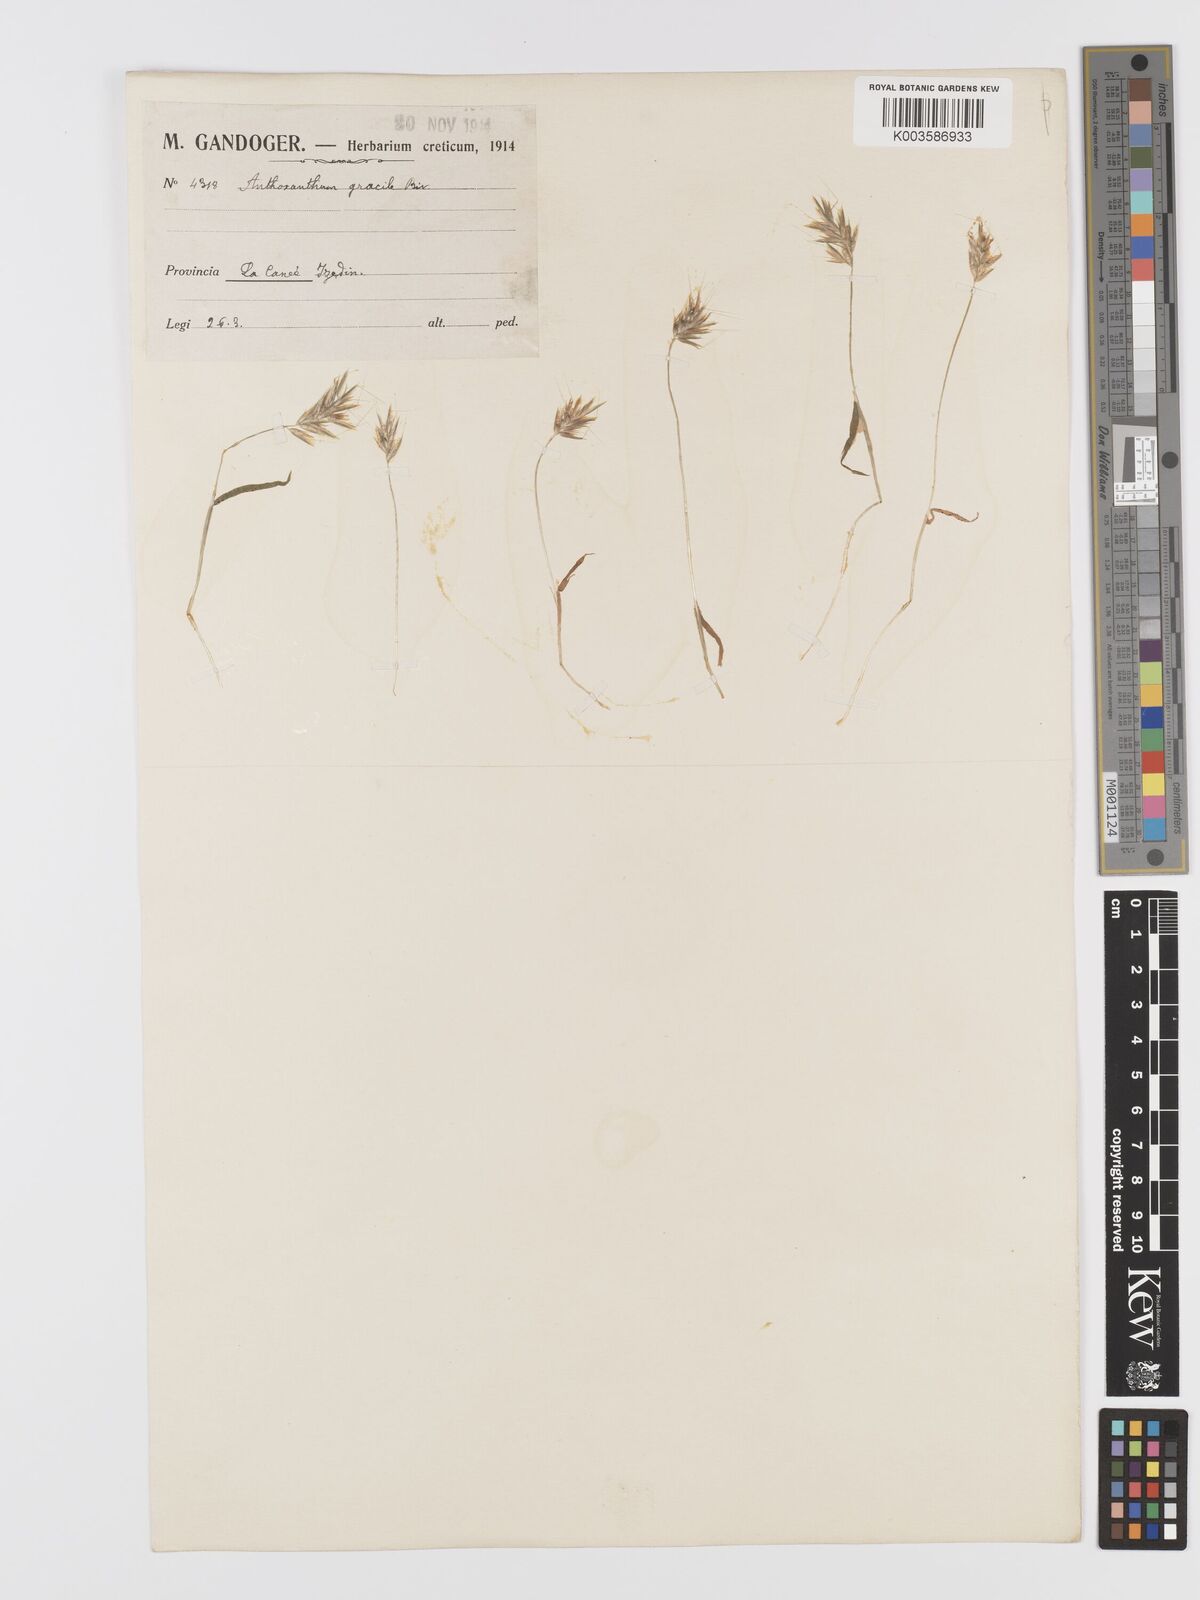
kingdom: Plantae
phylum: Tracheophyta
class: Liliopsida
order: Poales
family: Poaceae
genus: Anthoxanthum
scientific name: Anthoxanthum gracile
